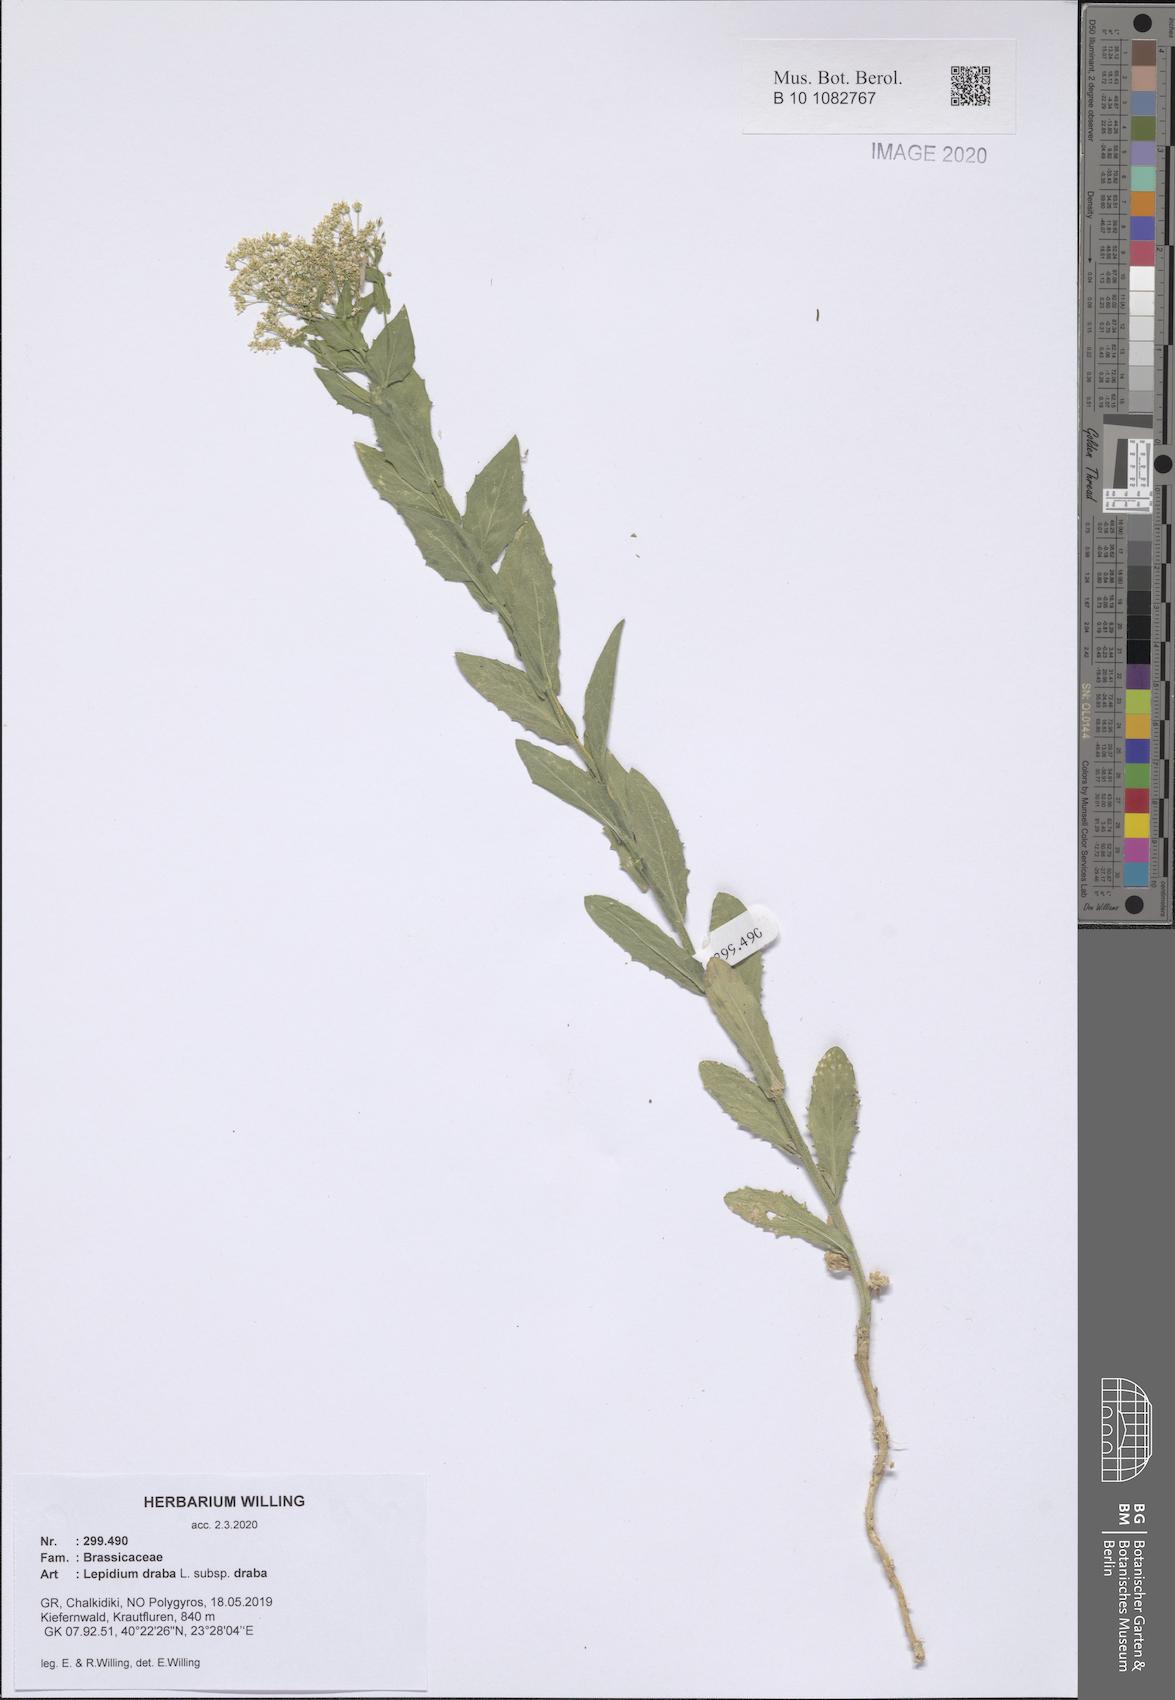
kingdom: Plantae
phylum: Tracheophyta
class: Magnoliopsida
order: Brassicales
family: Brassicaceae
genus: Lepidium
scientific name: Lepidium draba
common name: Hoary cress
